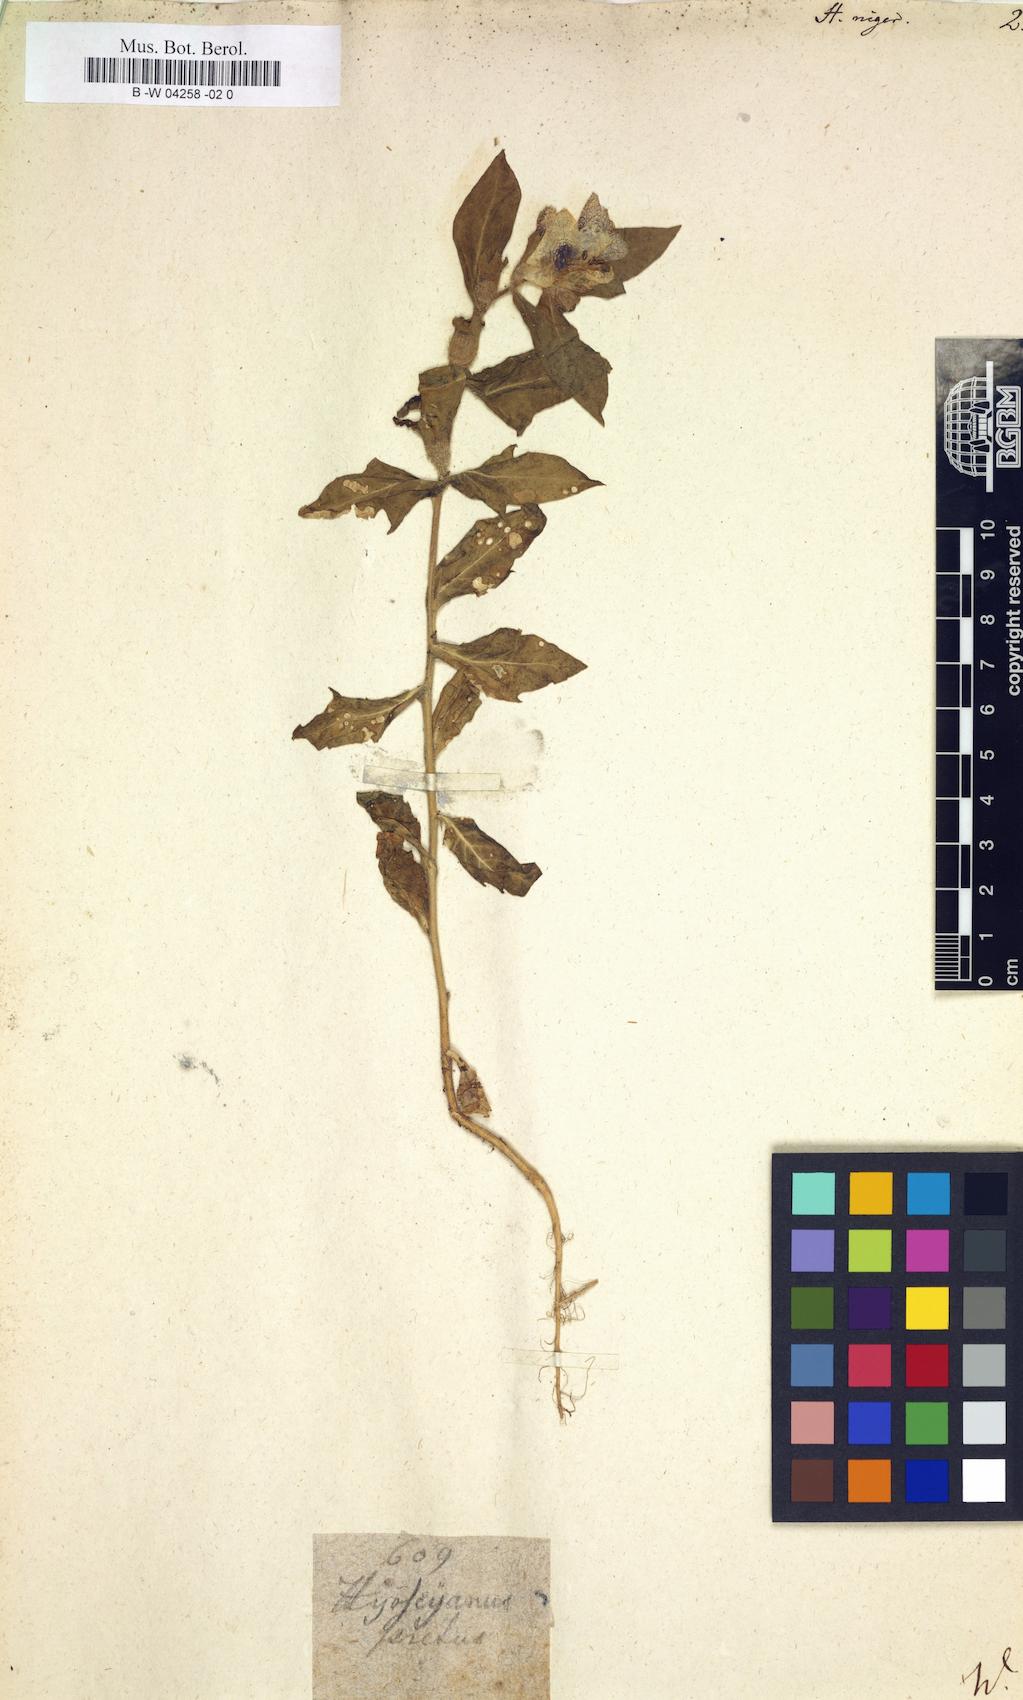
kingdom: Plantae
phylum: Tracheophyta
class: Magnoliopsida
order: Solanales
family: Solanaceae
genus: Hyoscyamus
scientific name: Hyoscyamus niger
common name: Henbane
